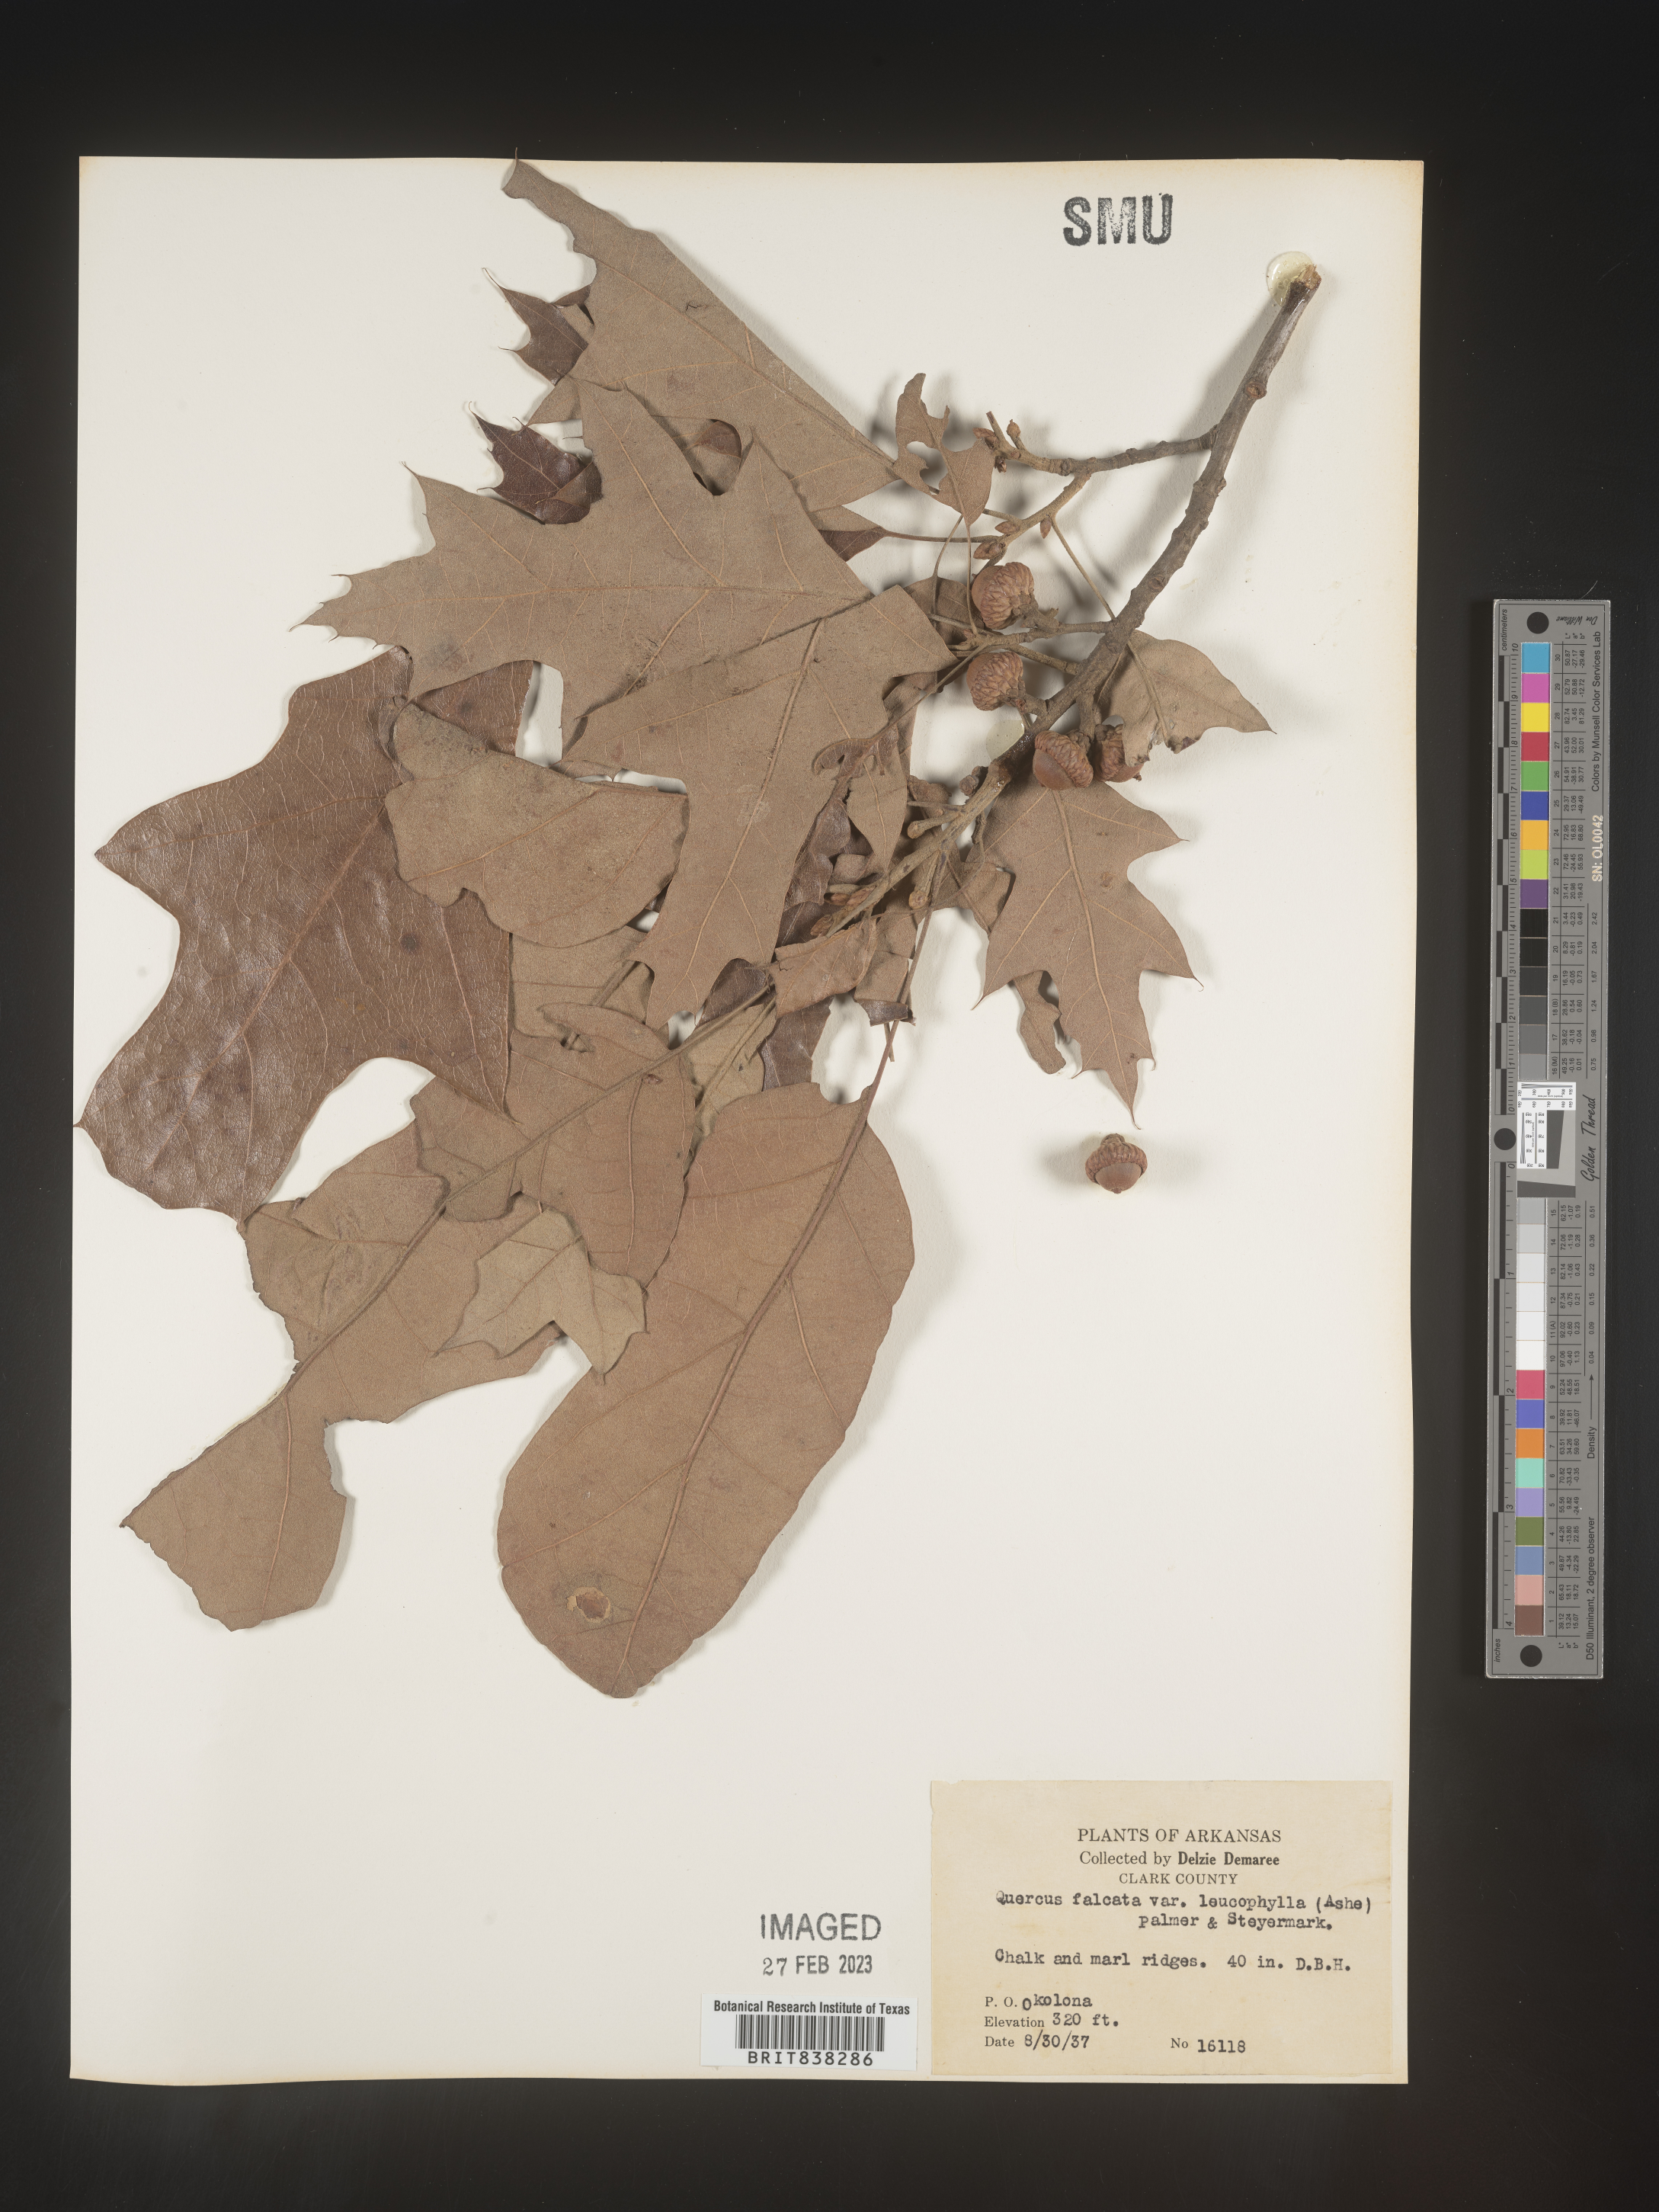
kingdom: Plantae
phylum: Tracheophyta
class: Magnoliopsida
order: Fagales
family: Fagaceae
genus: Quercus
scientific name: Quercus falcata
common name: Southern red oak
